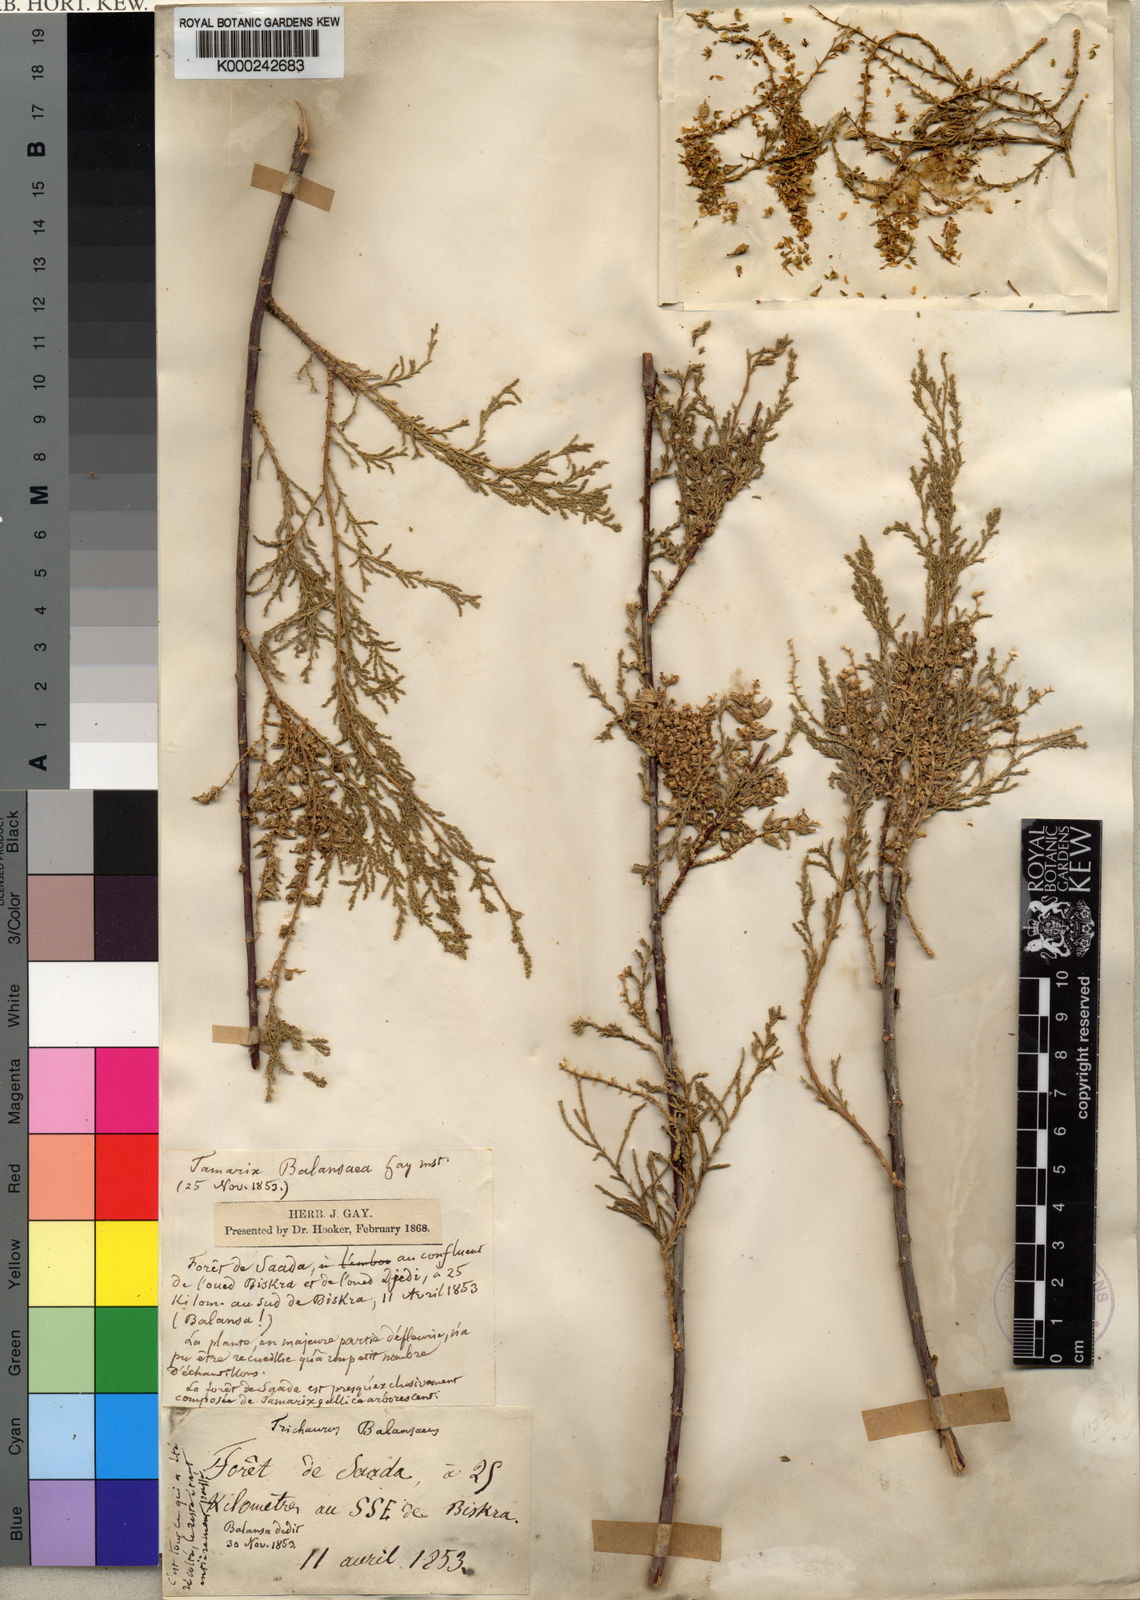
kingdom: Plantae
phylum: Tracheophyta
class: Magnoliopsida
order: Caryophyllales
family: Tamaricaceae
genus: Tamarix
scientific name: Tamarix
